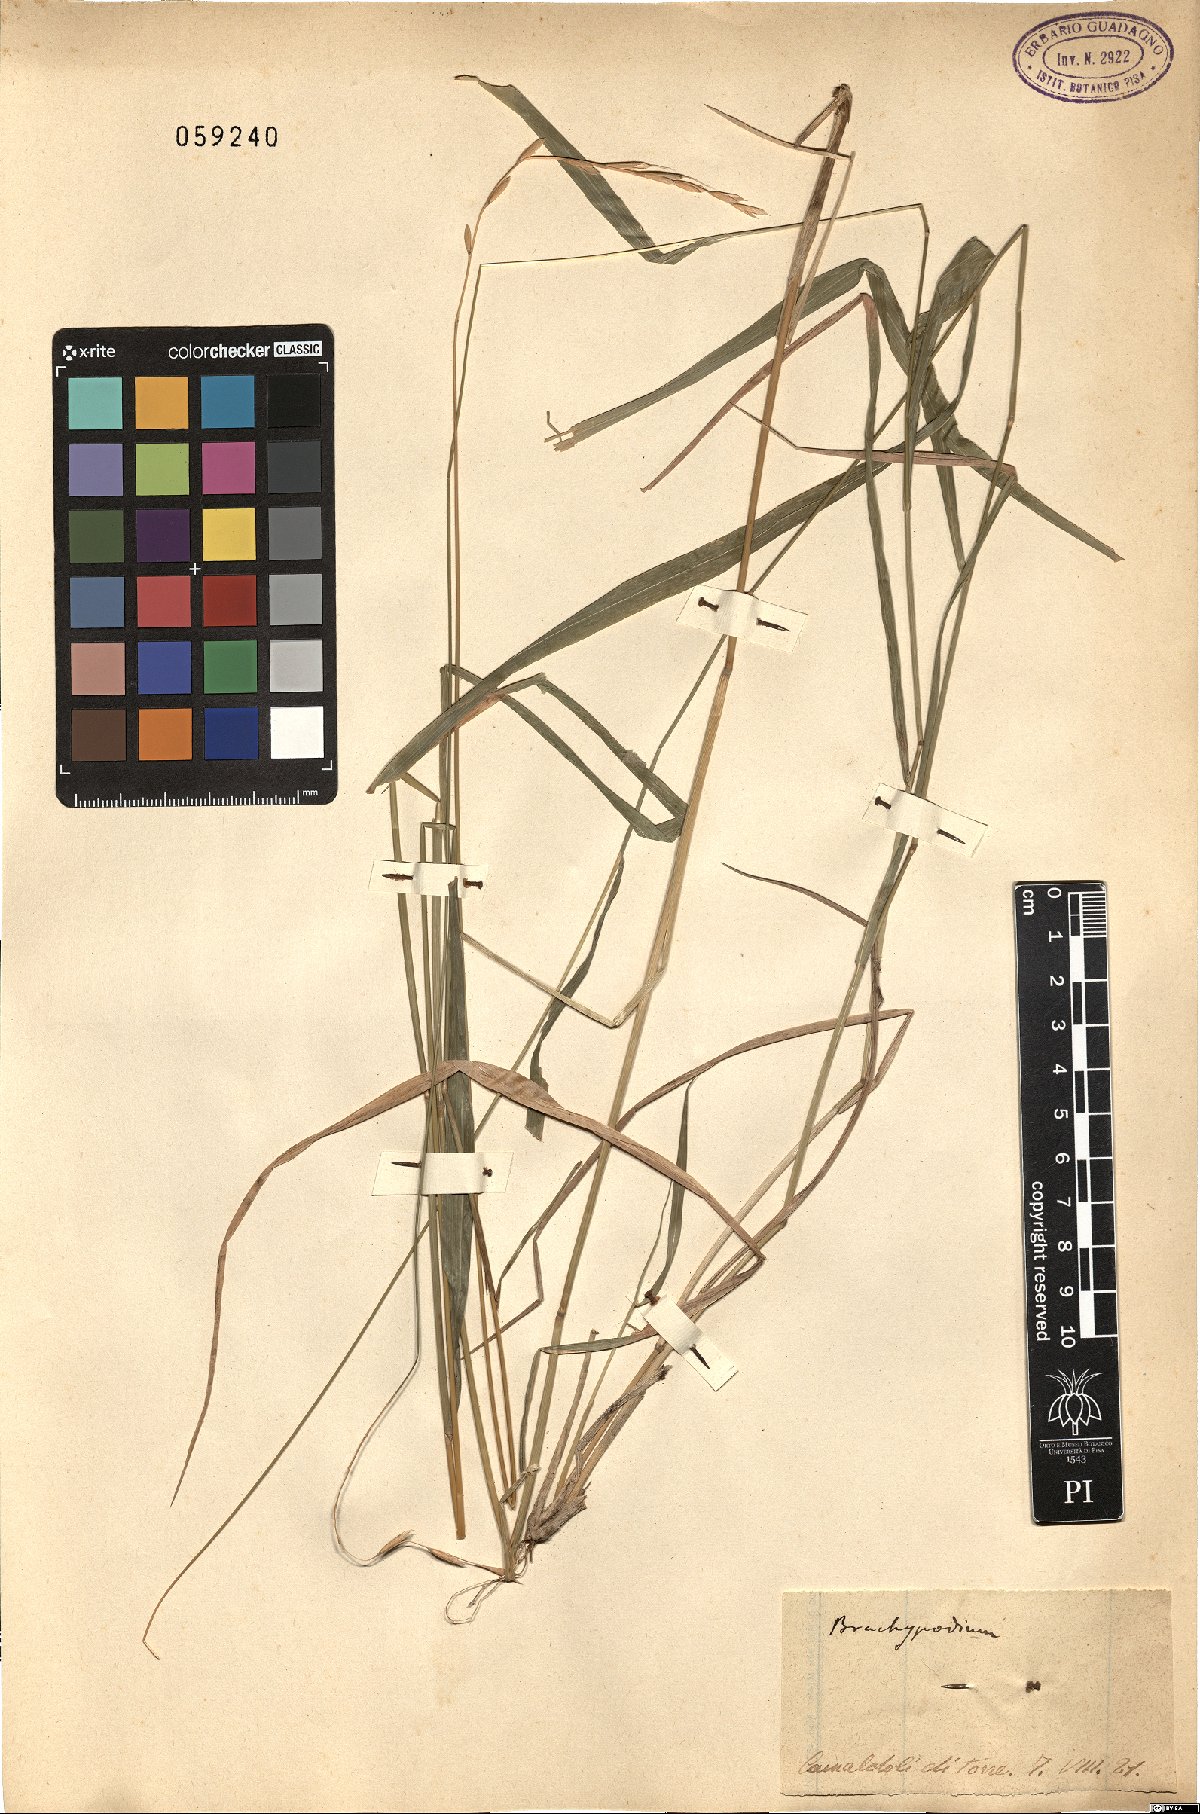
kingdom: Plantae
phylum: Tracheophyta
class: Liliopsida
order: Poales
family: Poaceae
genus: Brachypodium
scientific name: Brachypodium
